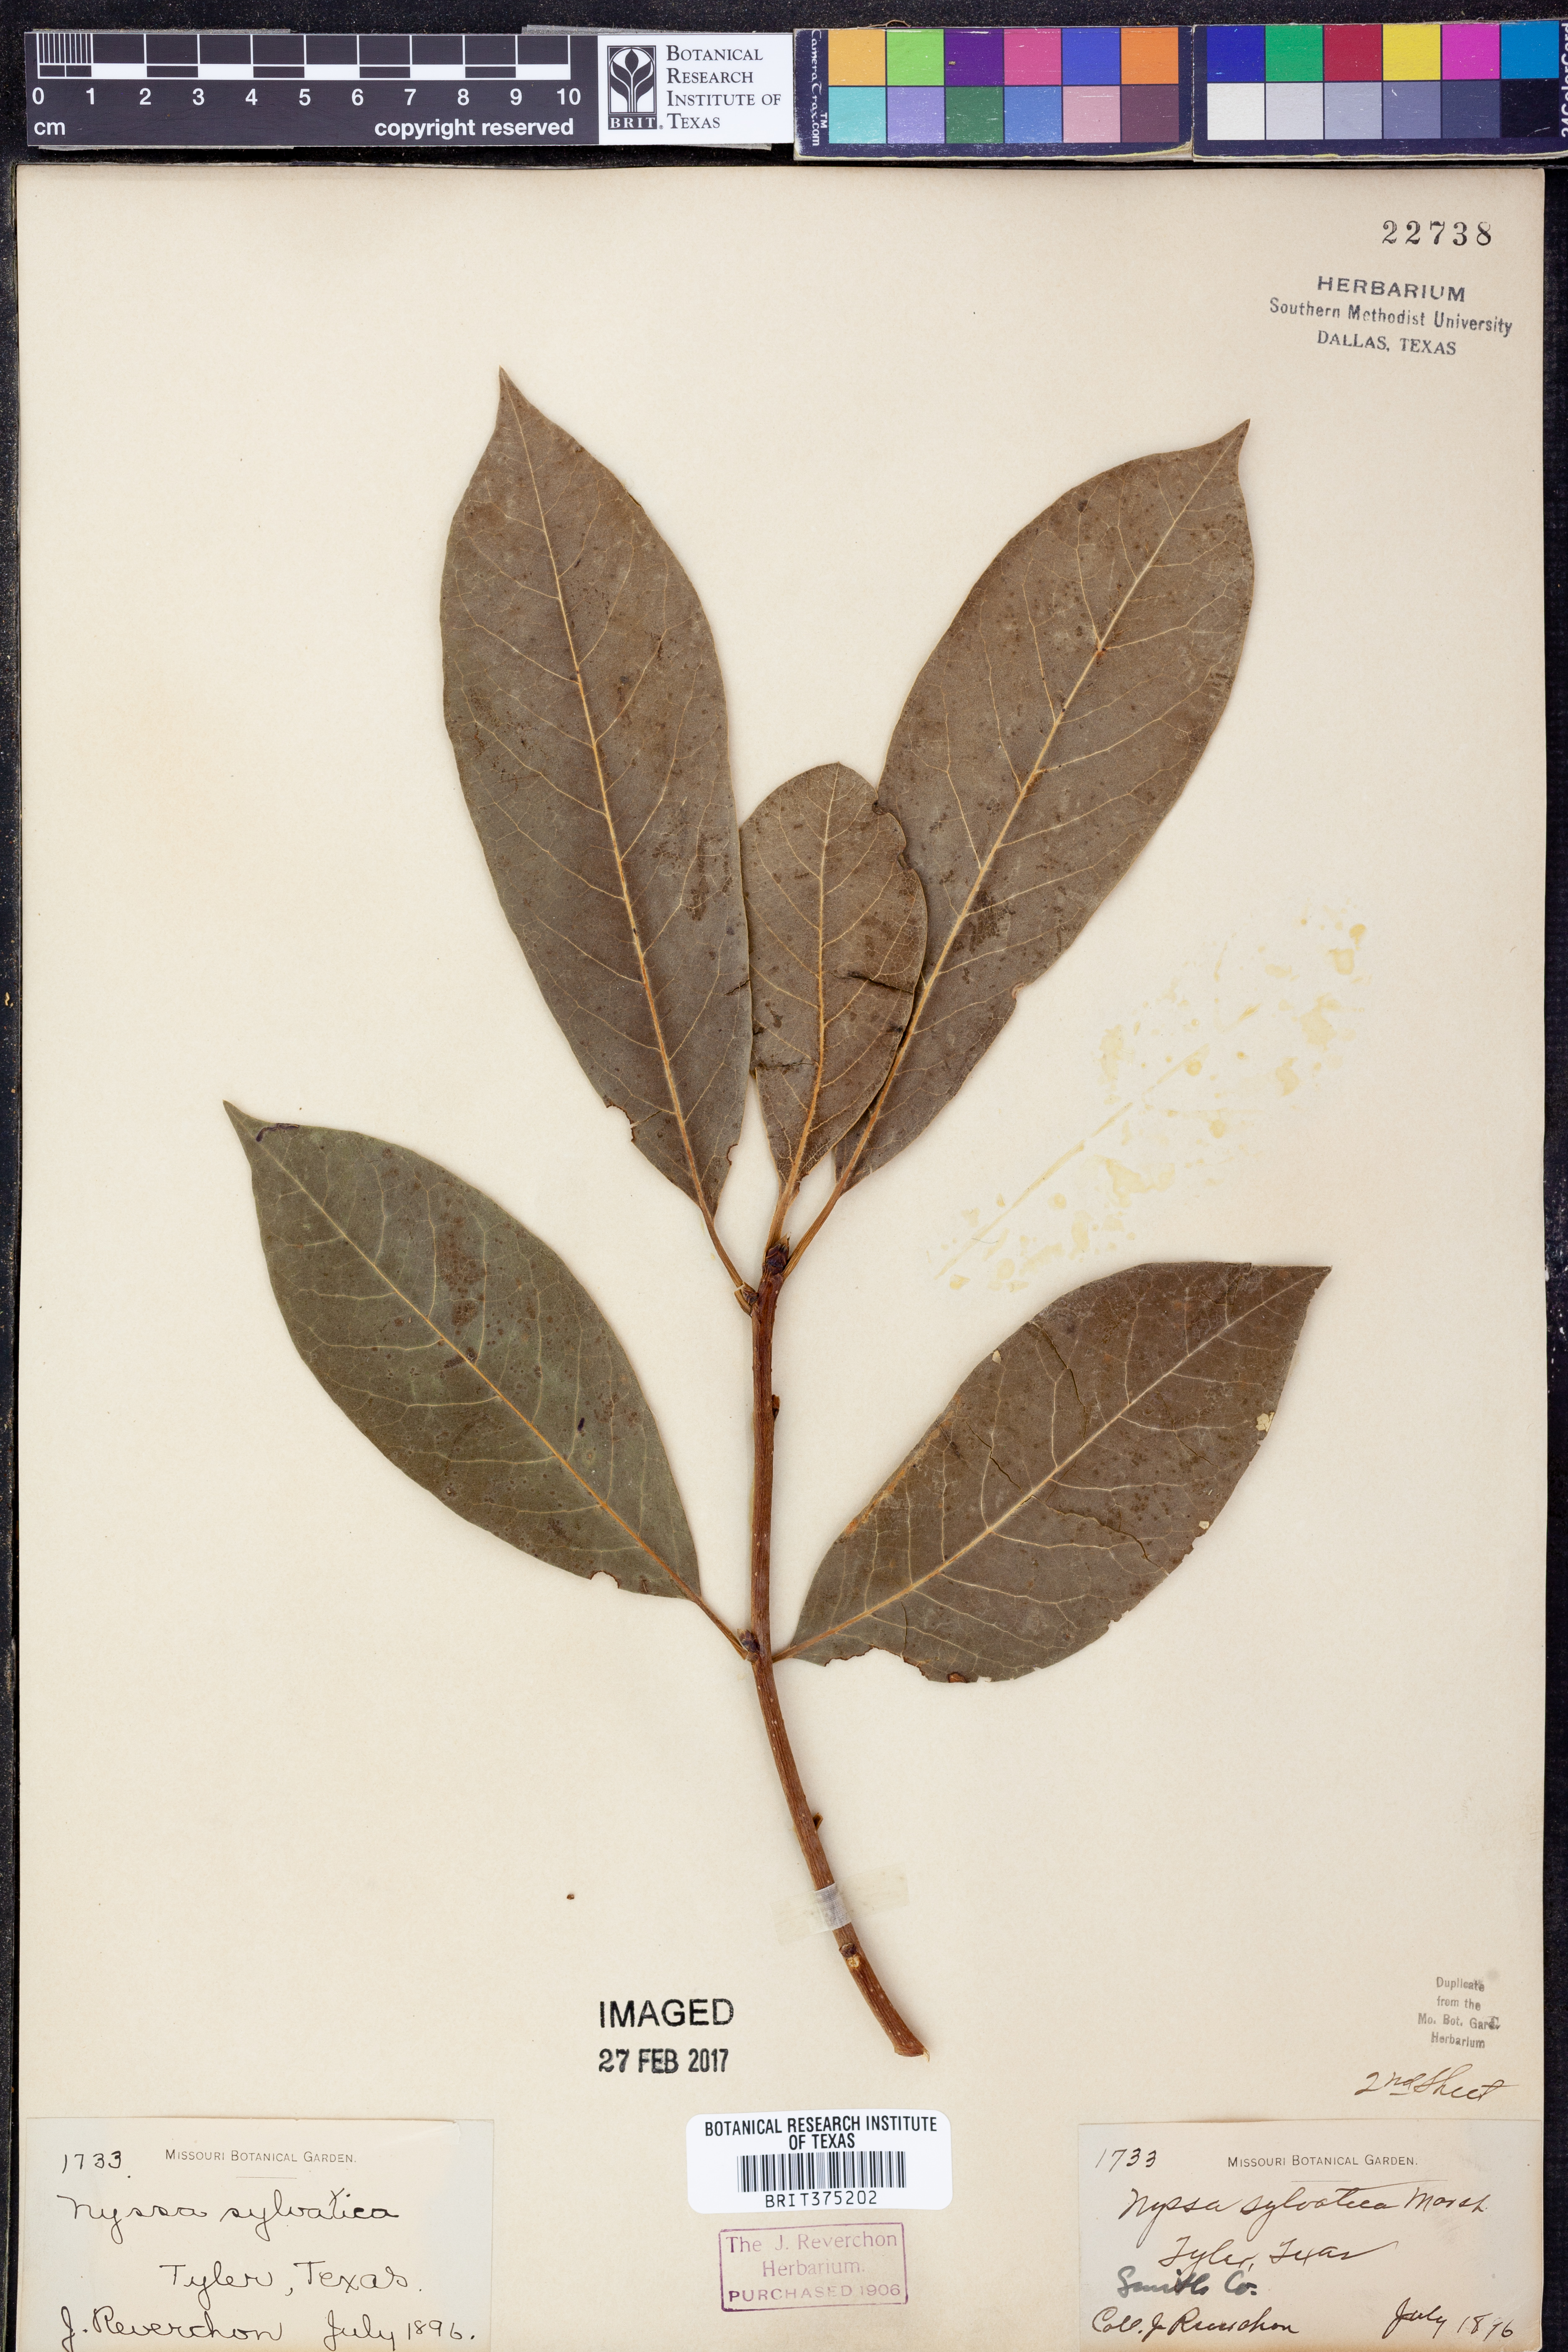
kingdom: Plantae
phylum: Tracheophyta
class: Magnoliopsida
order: Cornales
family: Nyssaceae
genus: Nyssa
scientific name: Nyssa sylvatica
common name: Black tupelo
